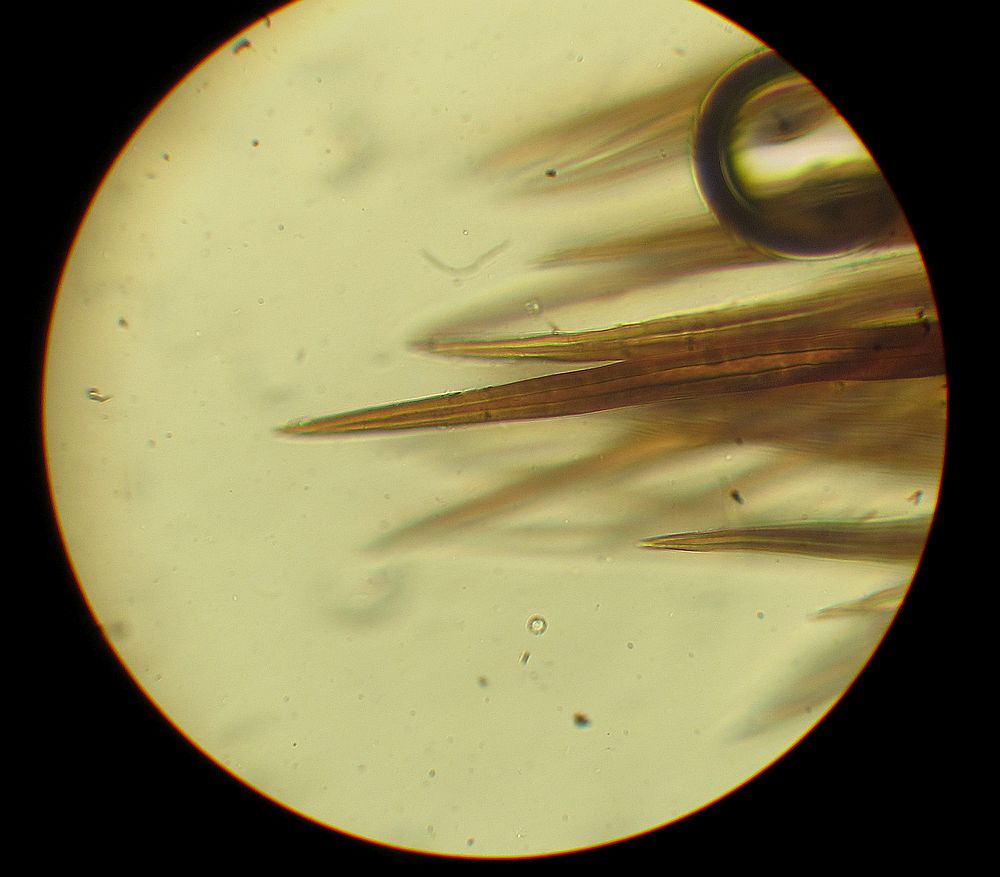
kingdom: Fungi
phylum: Ascomycota
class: Sordariomycetes
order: Sordariales
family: Helminthosphaeriaceae
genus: Echinosphaeria
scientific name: Echinosphaeria strigosa
